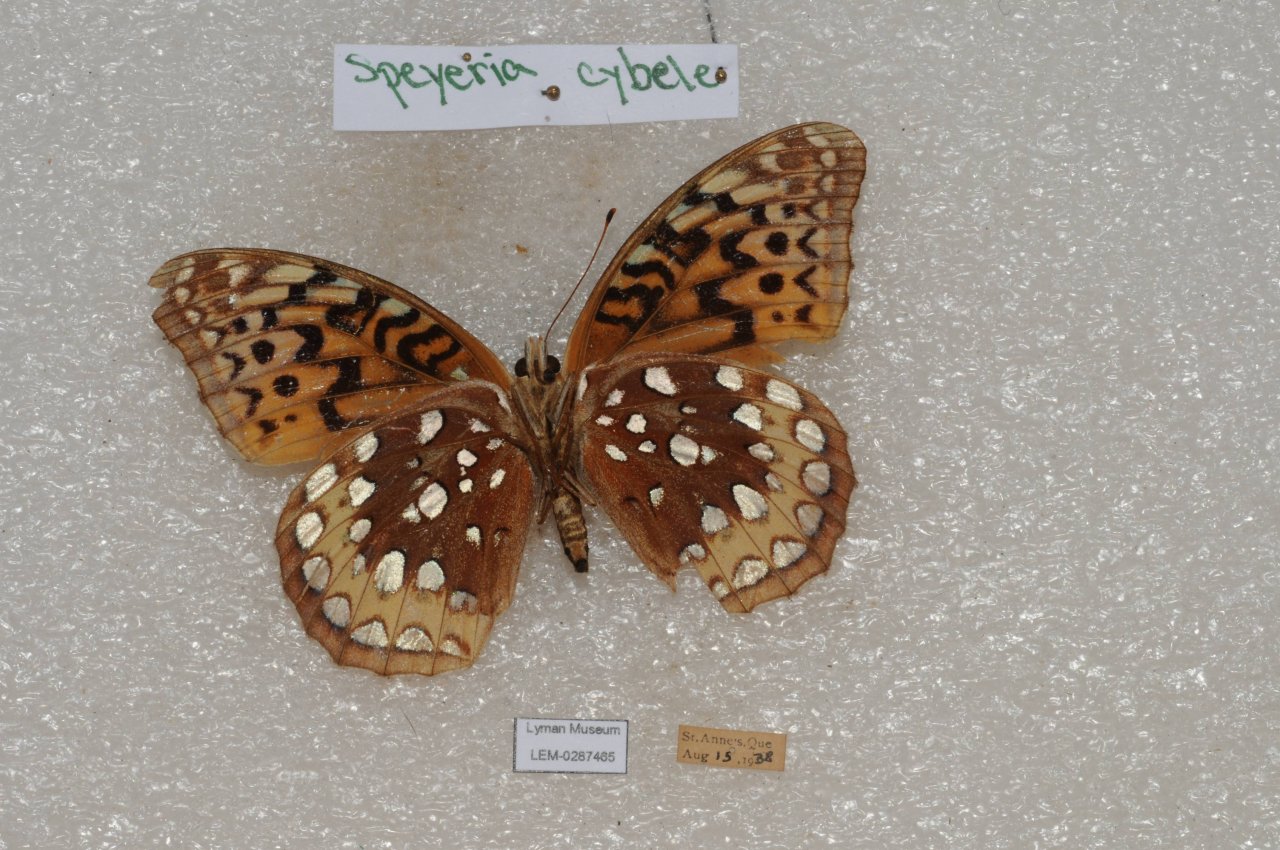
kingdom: Animalia
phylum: Arthropoda
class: Insecta
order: Lepidoptera
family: Nymphalidae
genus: Speyeria
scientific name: Speyeria cybele
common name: Great Spangled Fritillary
